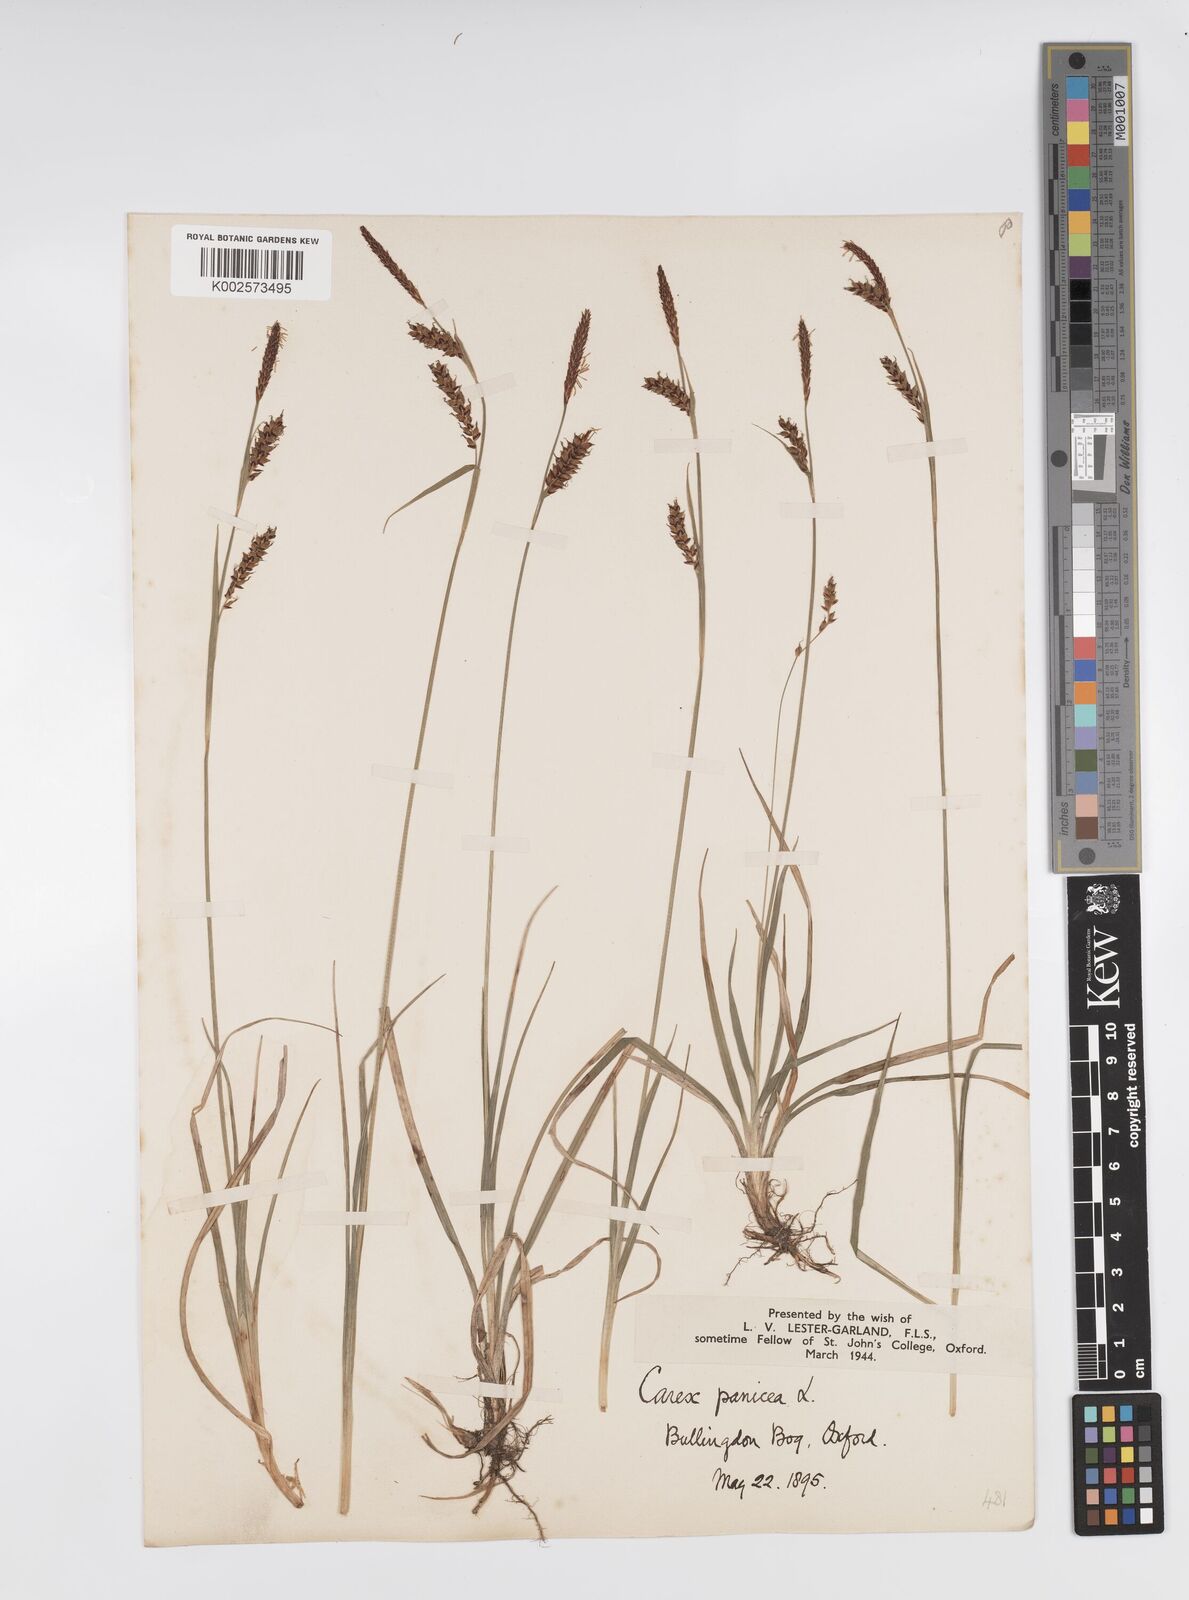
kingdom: Plantae
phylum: Tracheophyta
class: Liliopsida
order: Poales
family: Cyperaceae
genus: Carex
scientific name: Carex panicea
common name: Carnation sedge
